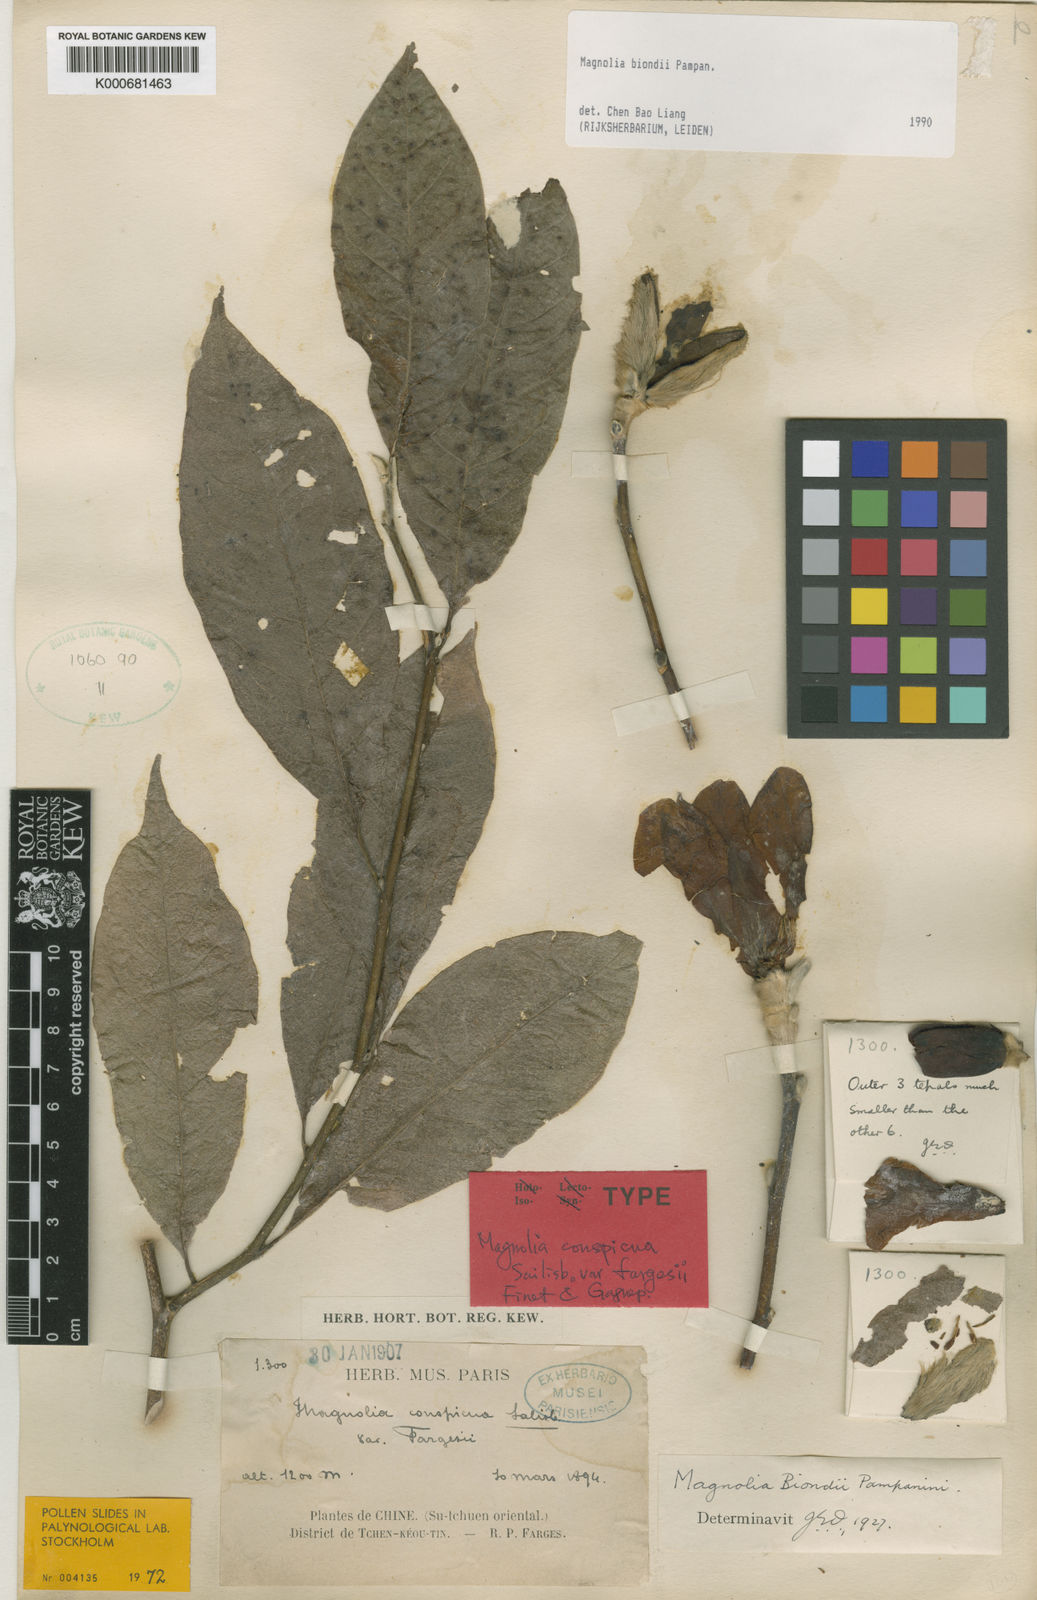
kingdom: Plantae
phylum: Tracheophyta
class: Magnoliopsida
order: Magnoliales
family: Magnoliaceae
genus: Magnolia
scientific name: Magnolia biondii
